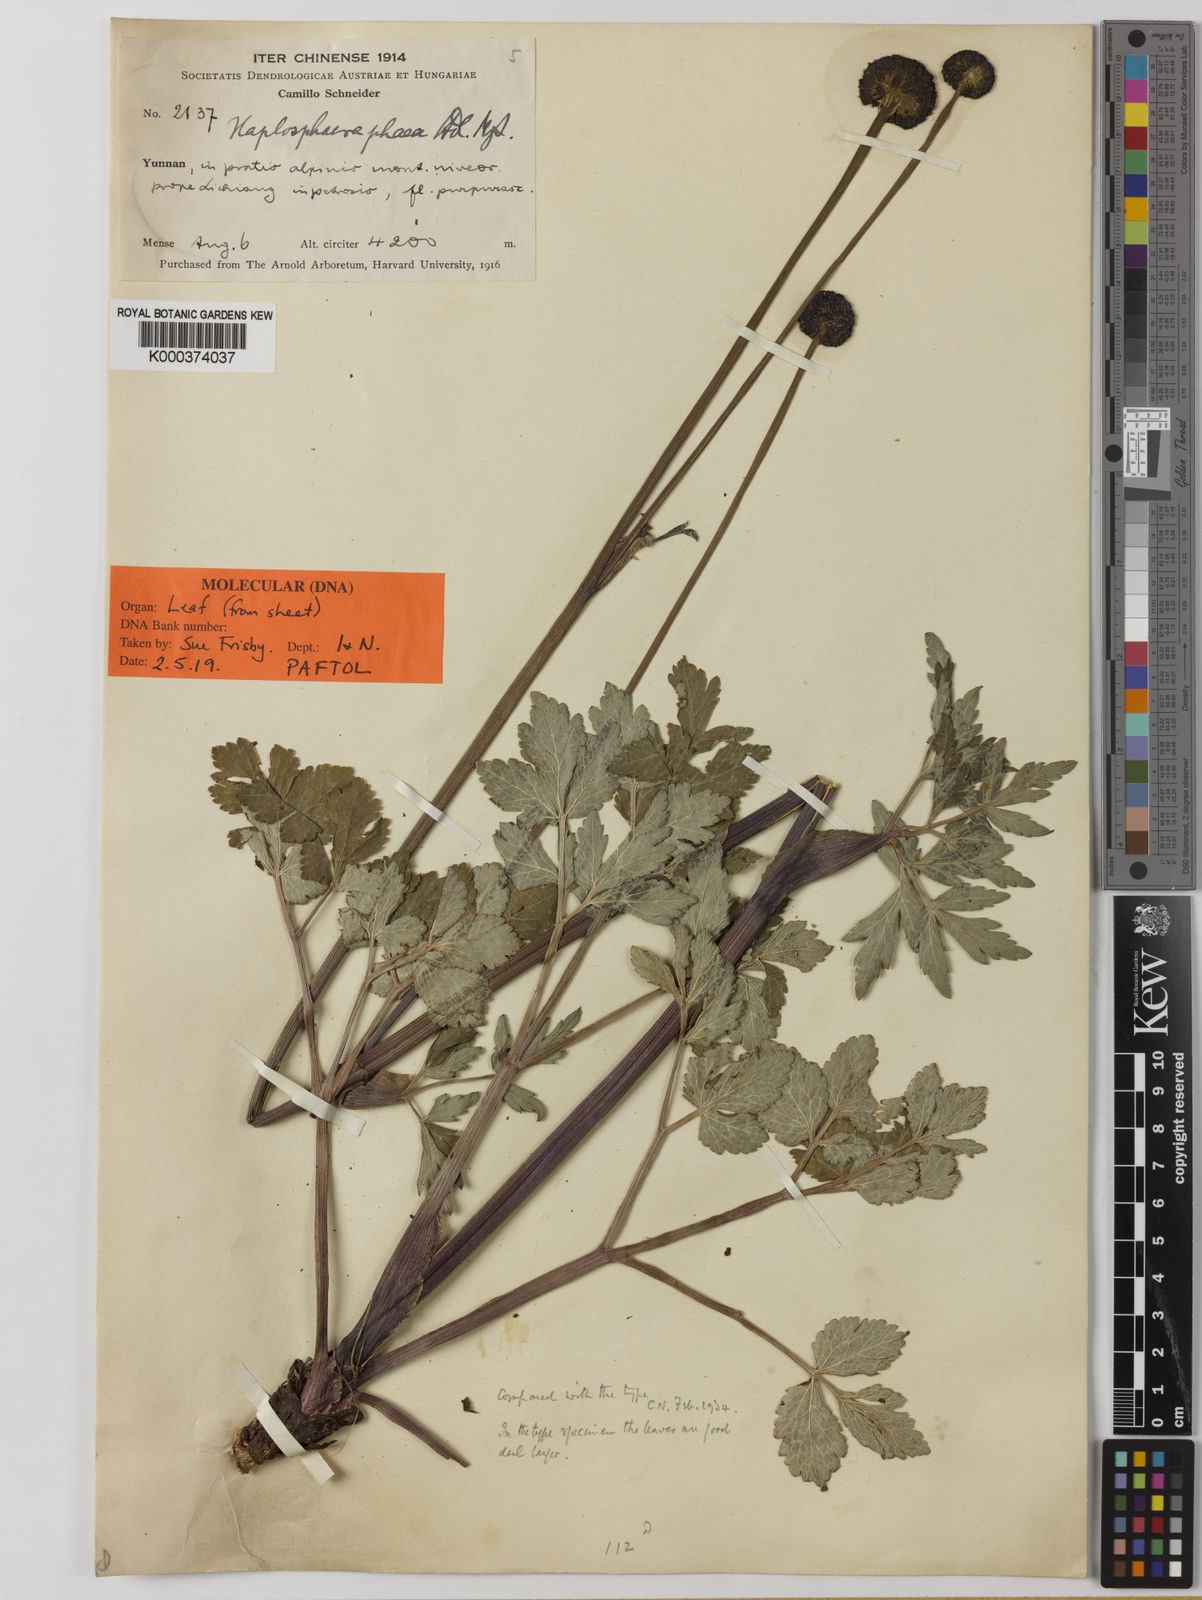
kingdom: Plantae
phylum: Tracheophyta
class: Magnoliopsida
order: Apiales
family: Apiaceae
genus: Hansenia
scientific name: Hansenia phaea
